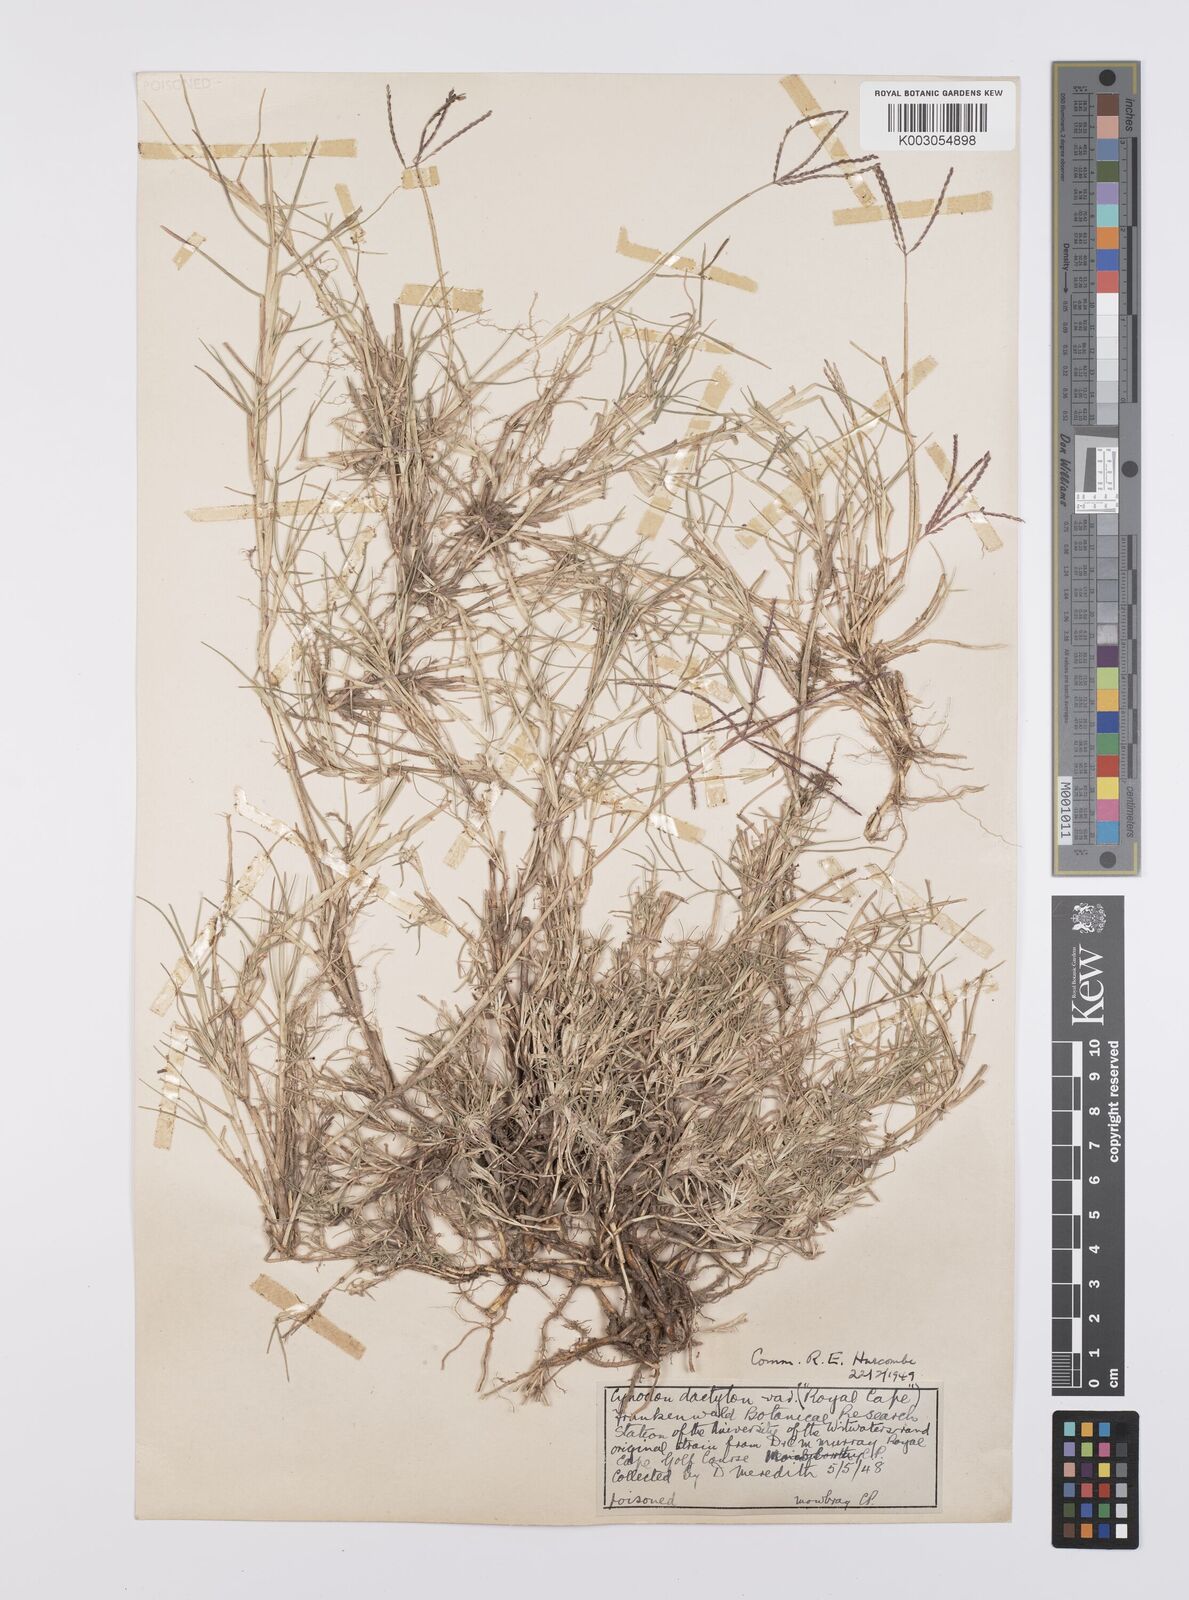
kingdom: Plantae
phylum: Tracheophyta
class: Liliopsida
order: Poales
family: Poaceae
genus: Cynodon
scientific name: Cynodon dactylon
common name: Bermuda grass
